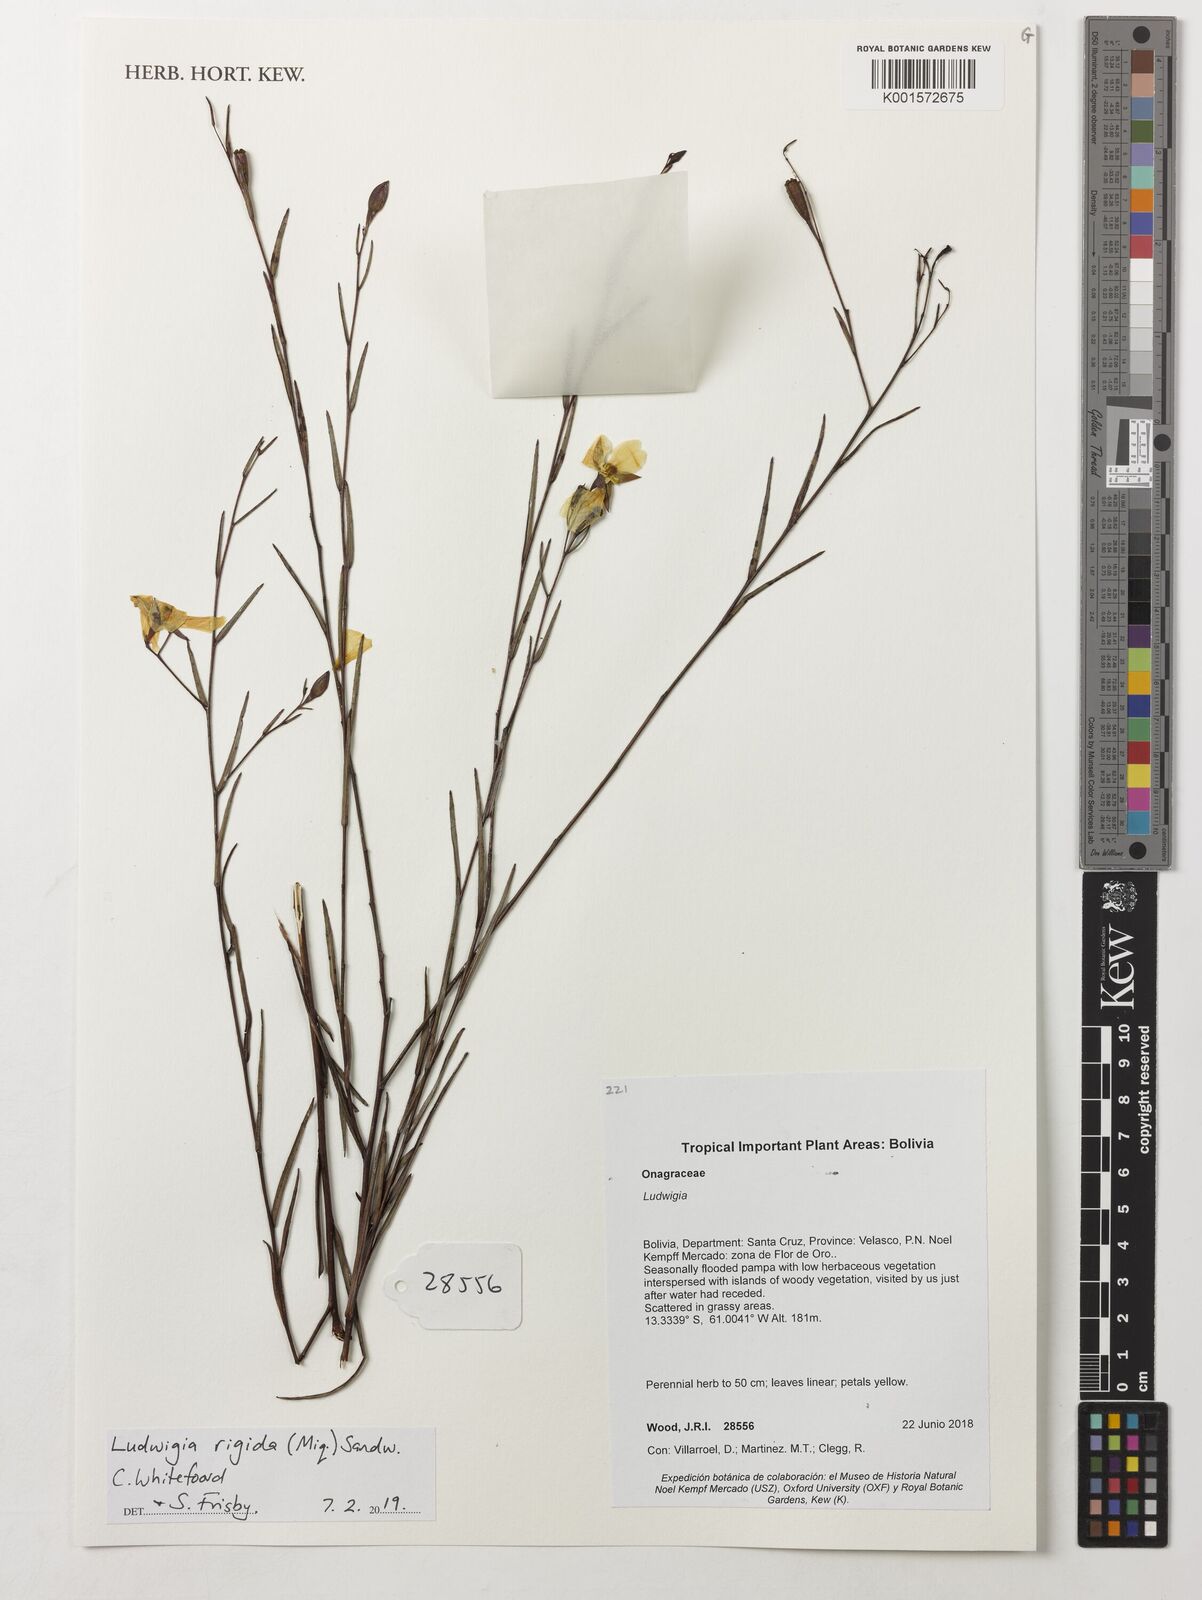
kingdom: Plantae
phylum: Tracheophyta
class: Magnoliopsida
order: Myrtales
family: Onagraceae
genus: Ludwigia
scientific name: Ludwigia rigida
